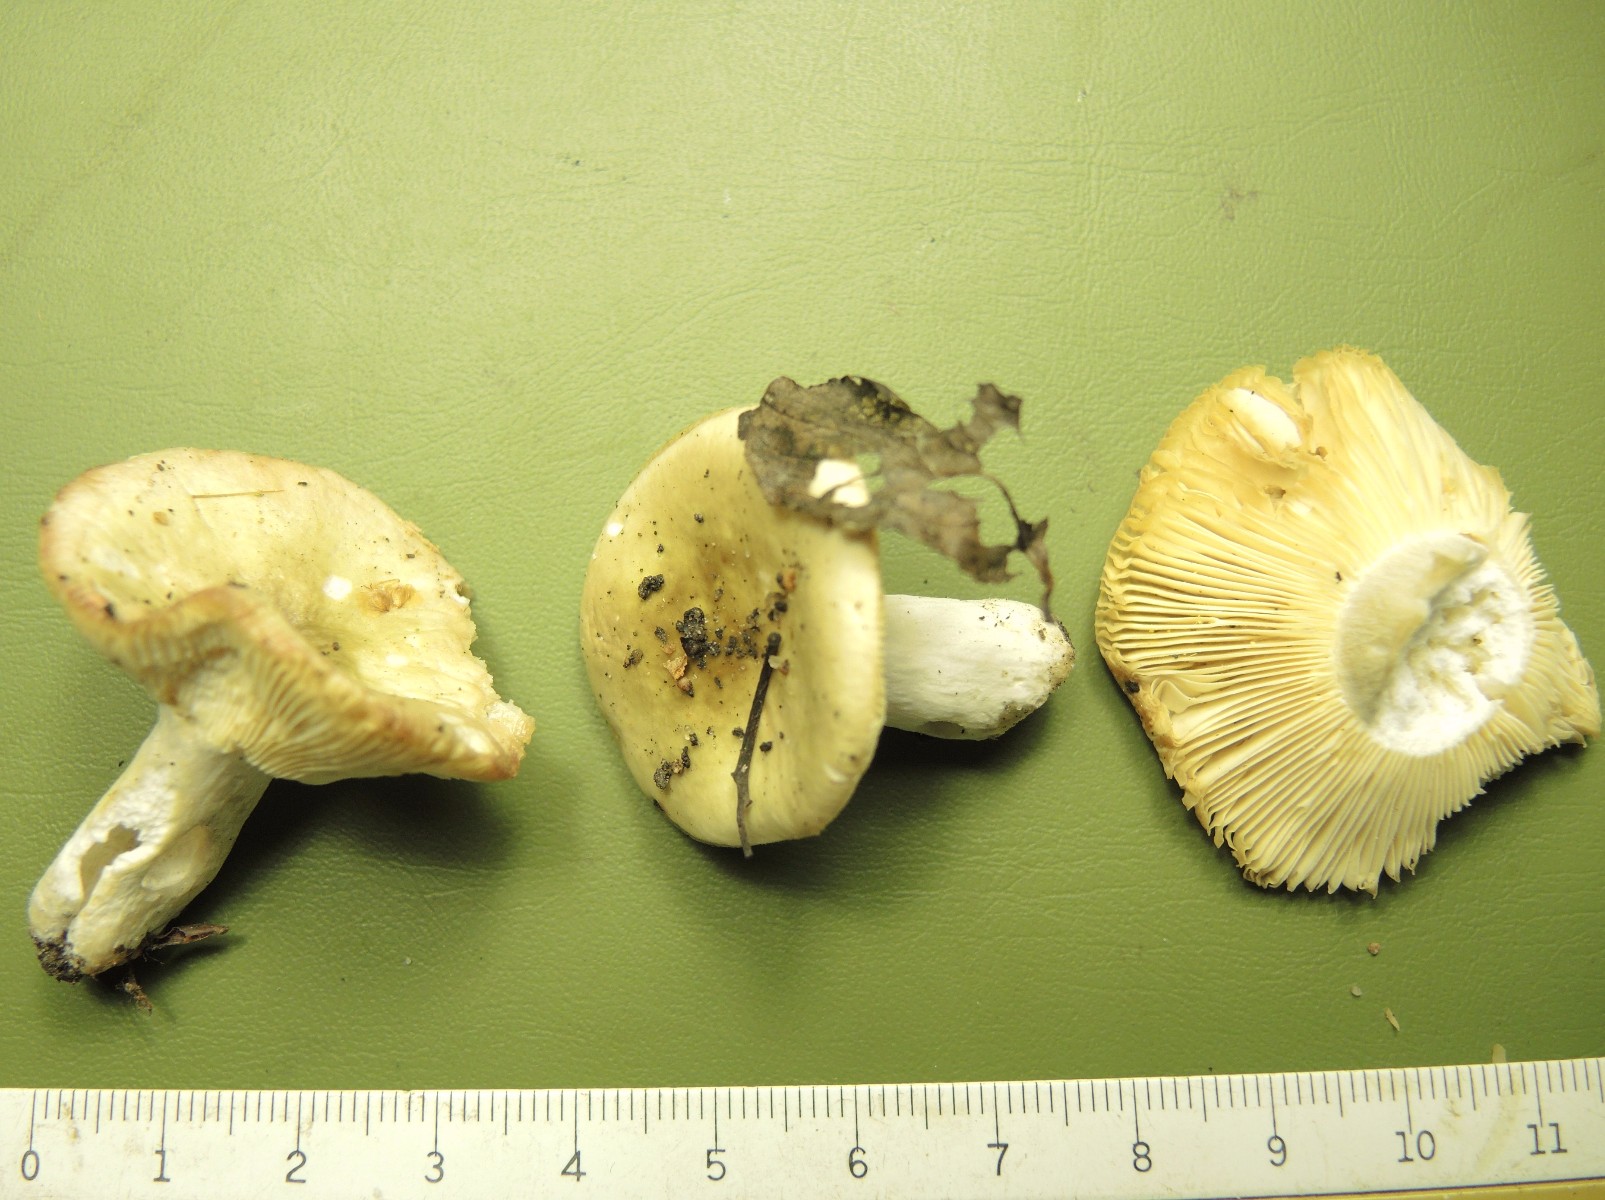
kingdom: Fungi
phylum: Basidiomycota
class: Agaricomycetes
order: Russulales
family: Russulaceae
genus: Russula
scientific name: Russula gracillima
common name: slank skørhat
